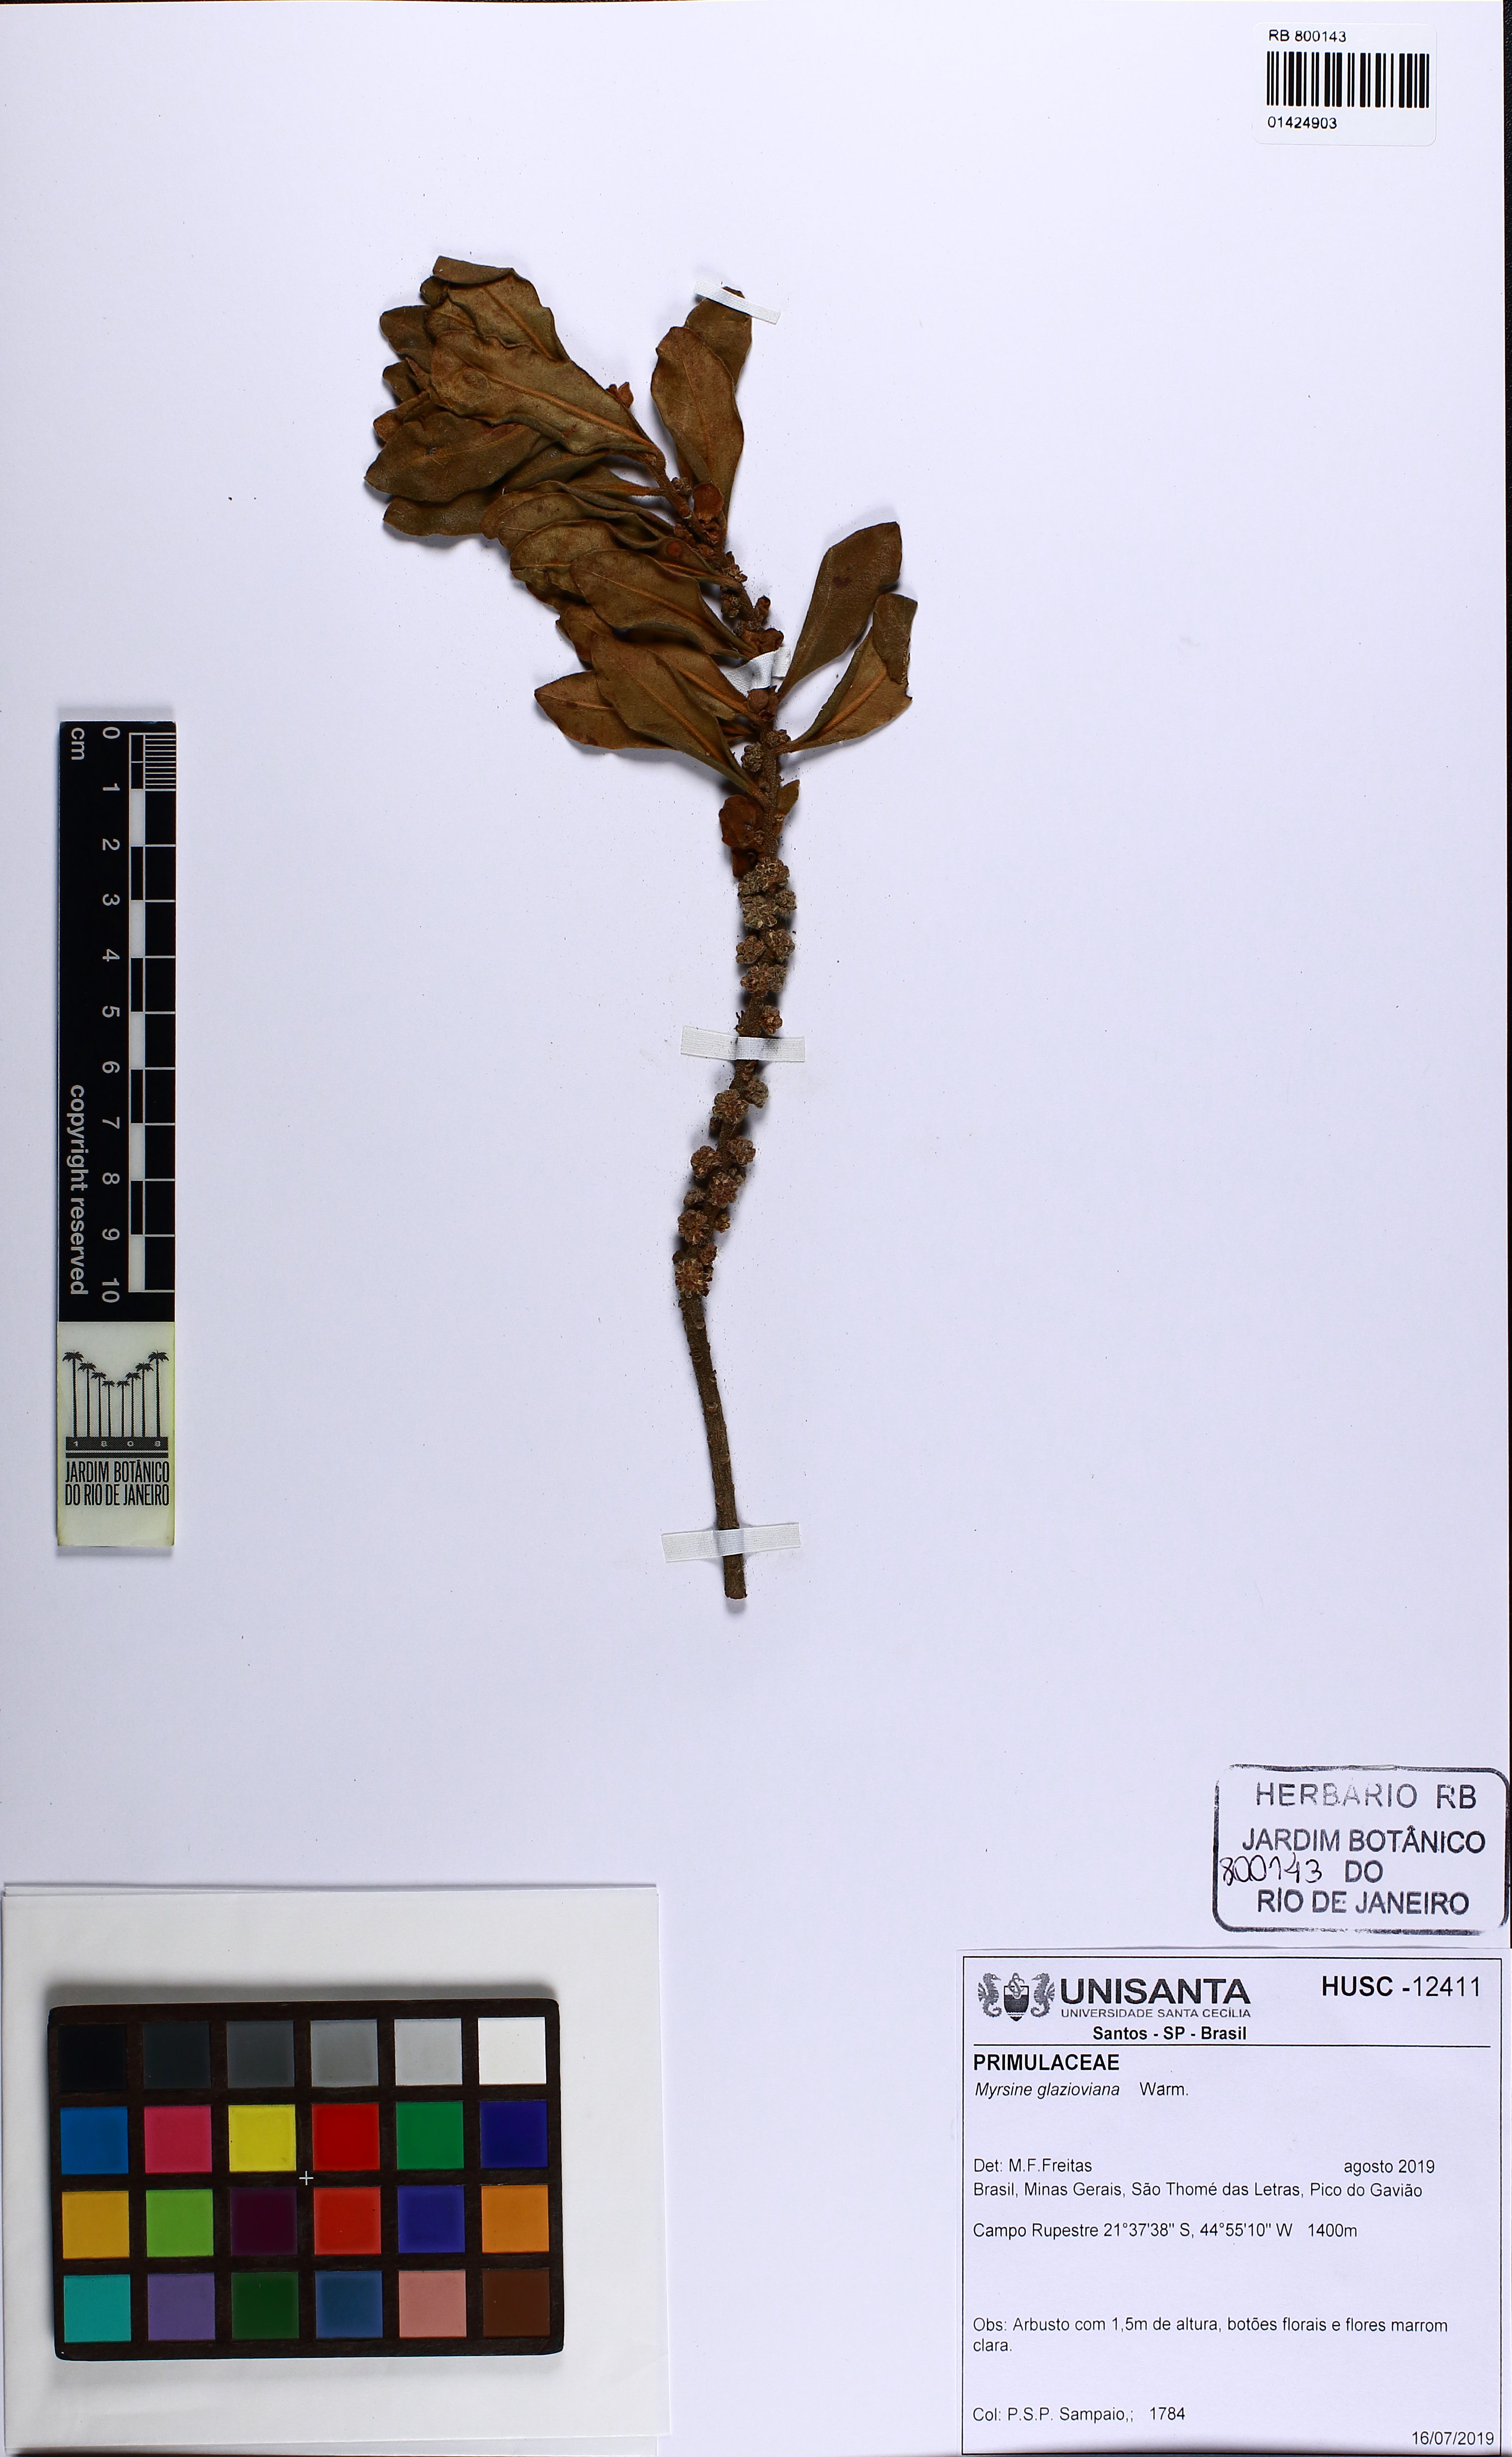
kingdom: Plantae
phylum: Tracheophyta
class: Magnoliopsida
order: Ericales
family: Primulaceae
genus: Myrsine
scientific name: Myrsine glazioviana
